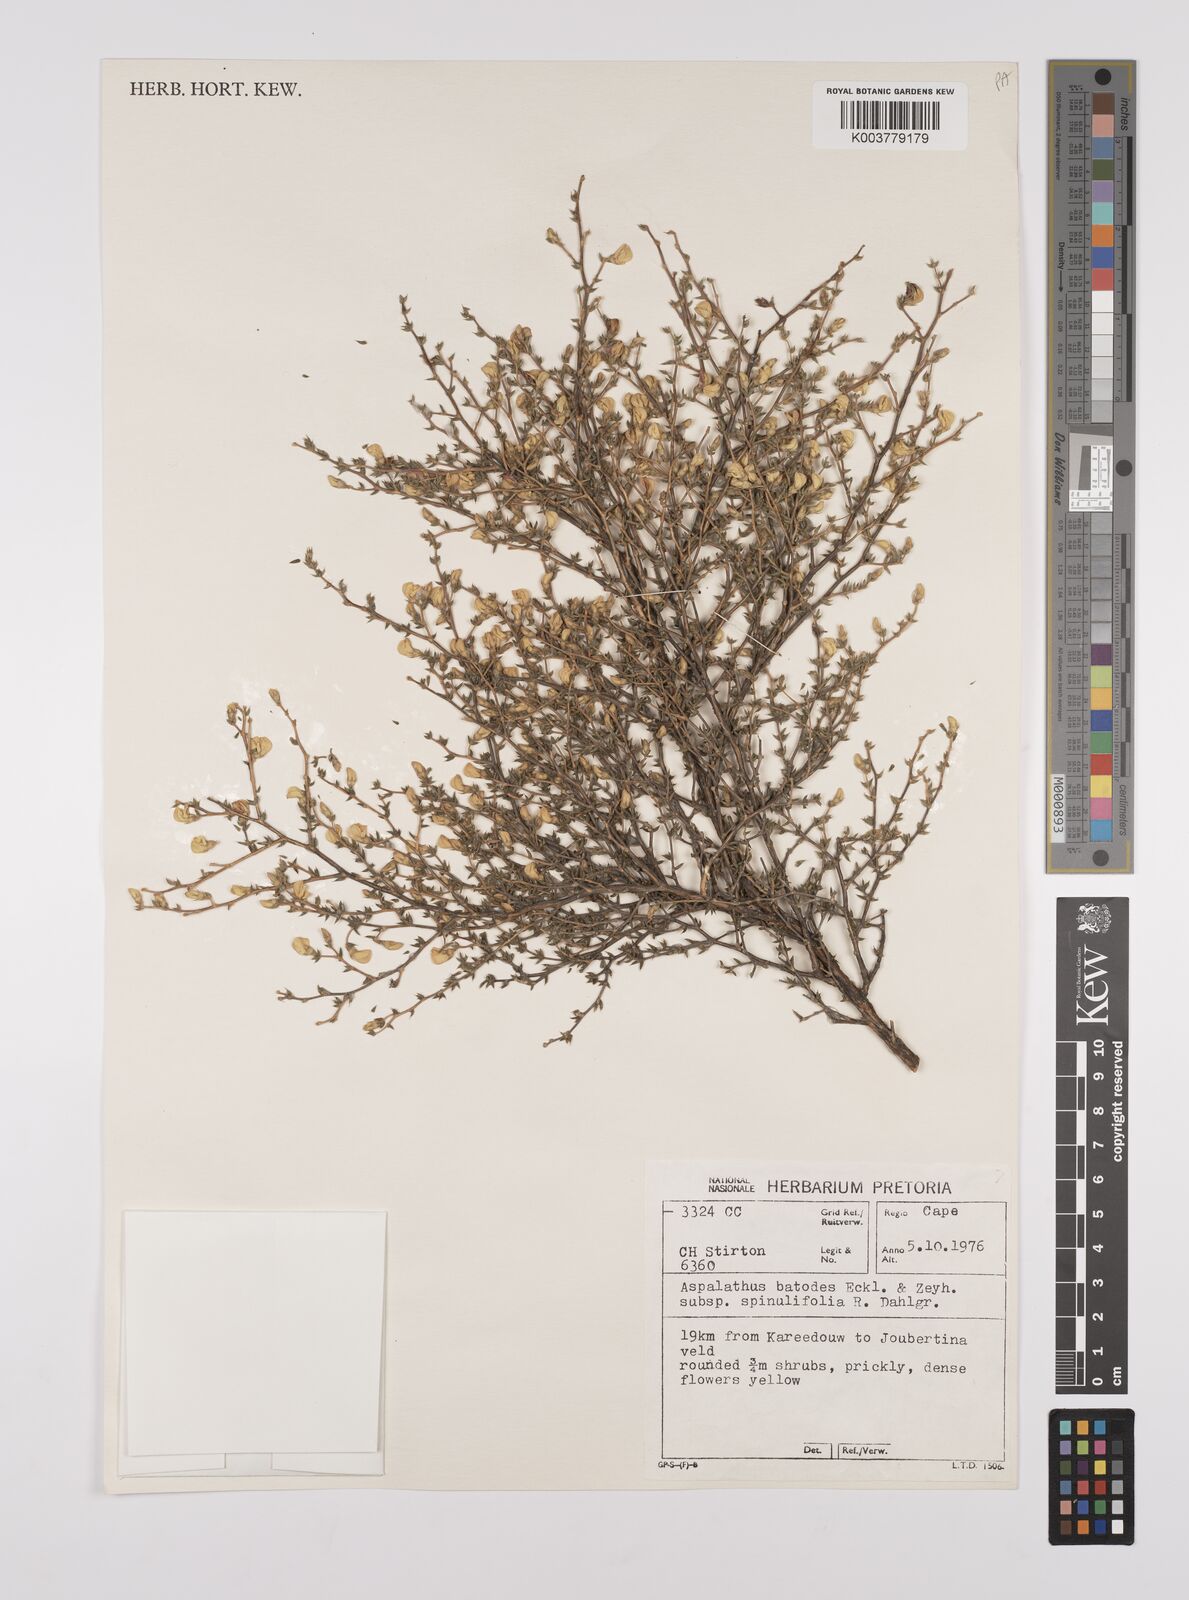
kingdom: Plantae
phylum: Tracheophyta
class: Magnoliopsida
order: Fabales
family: Fabaceae
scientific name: Fabaceae
